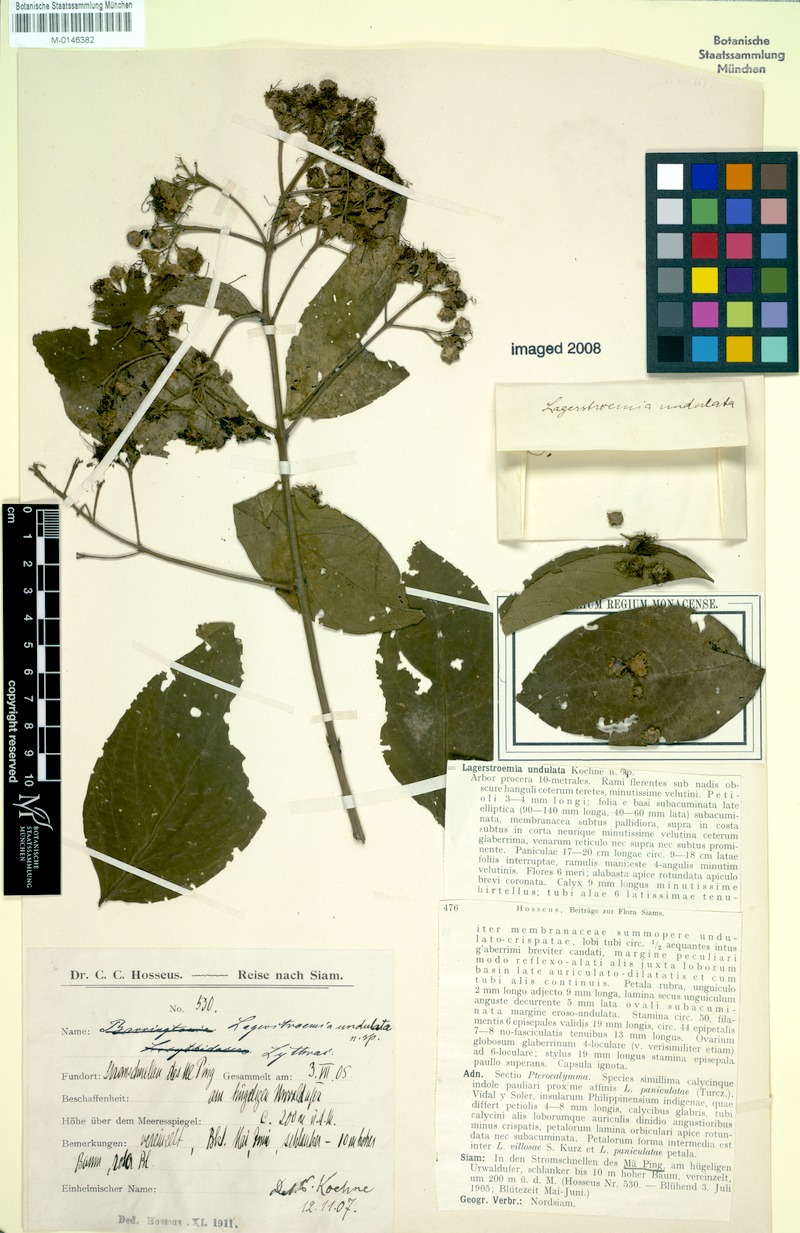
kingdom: Plantae
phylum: Tracheophyta
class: Magnoliopsida
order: Myrtales
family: Lythraceae
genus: Lagerstroemia
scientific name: Lagerstroemia undulata
